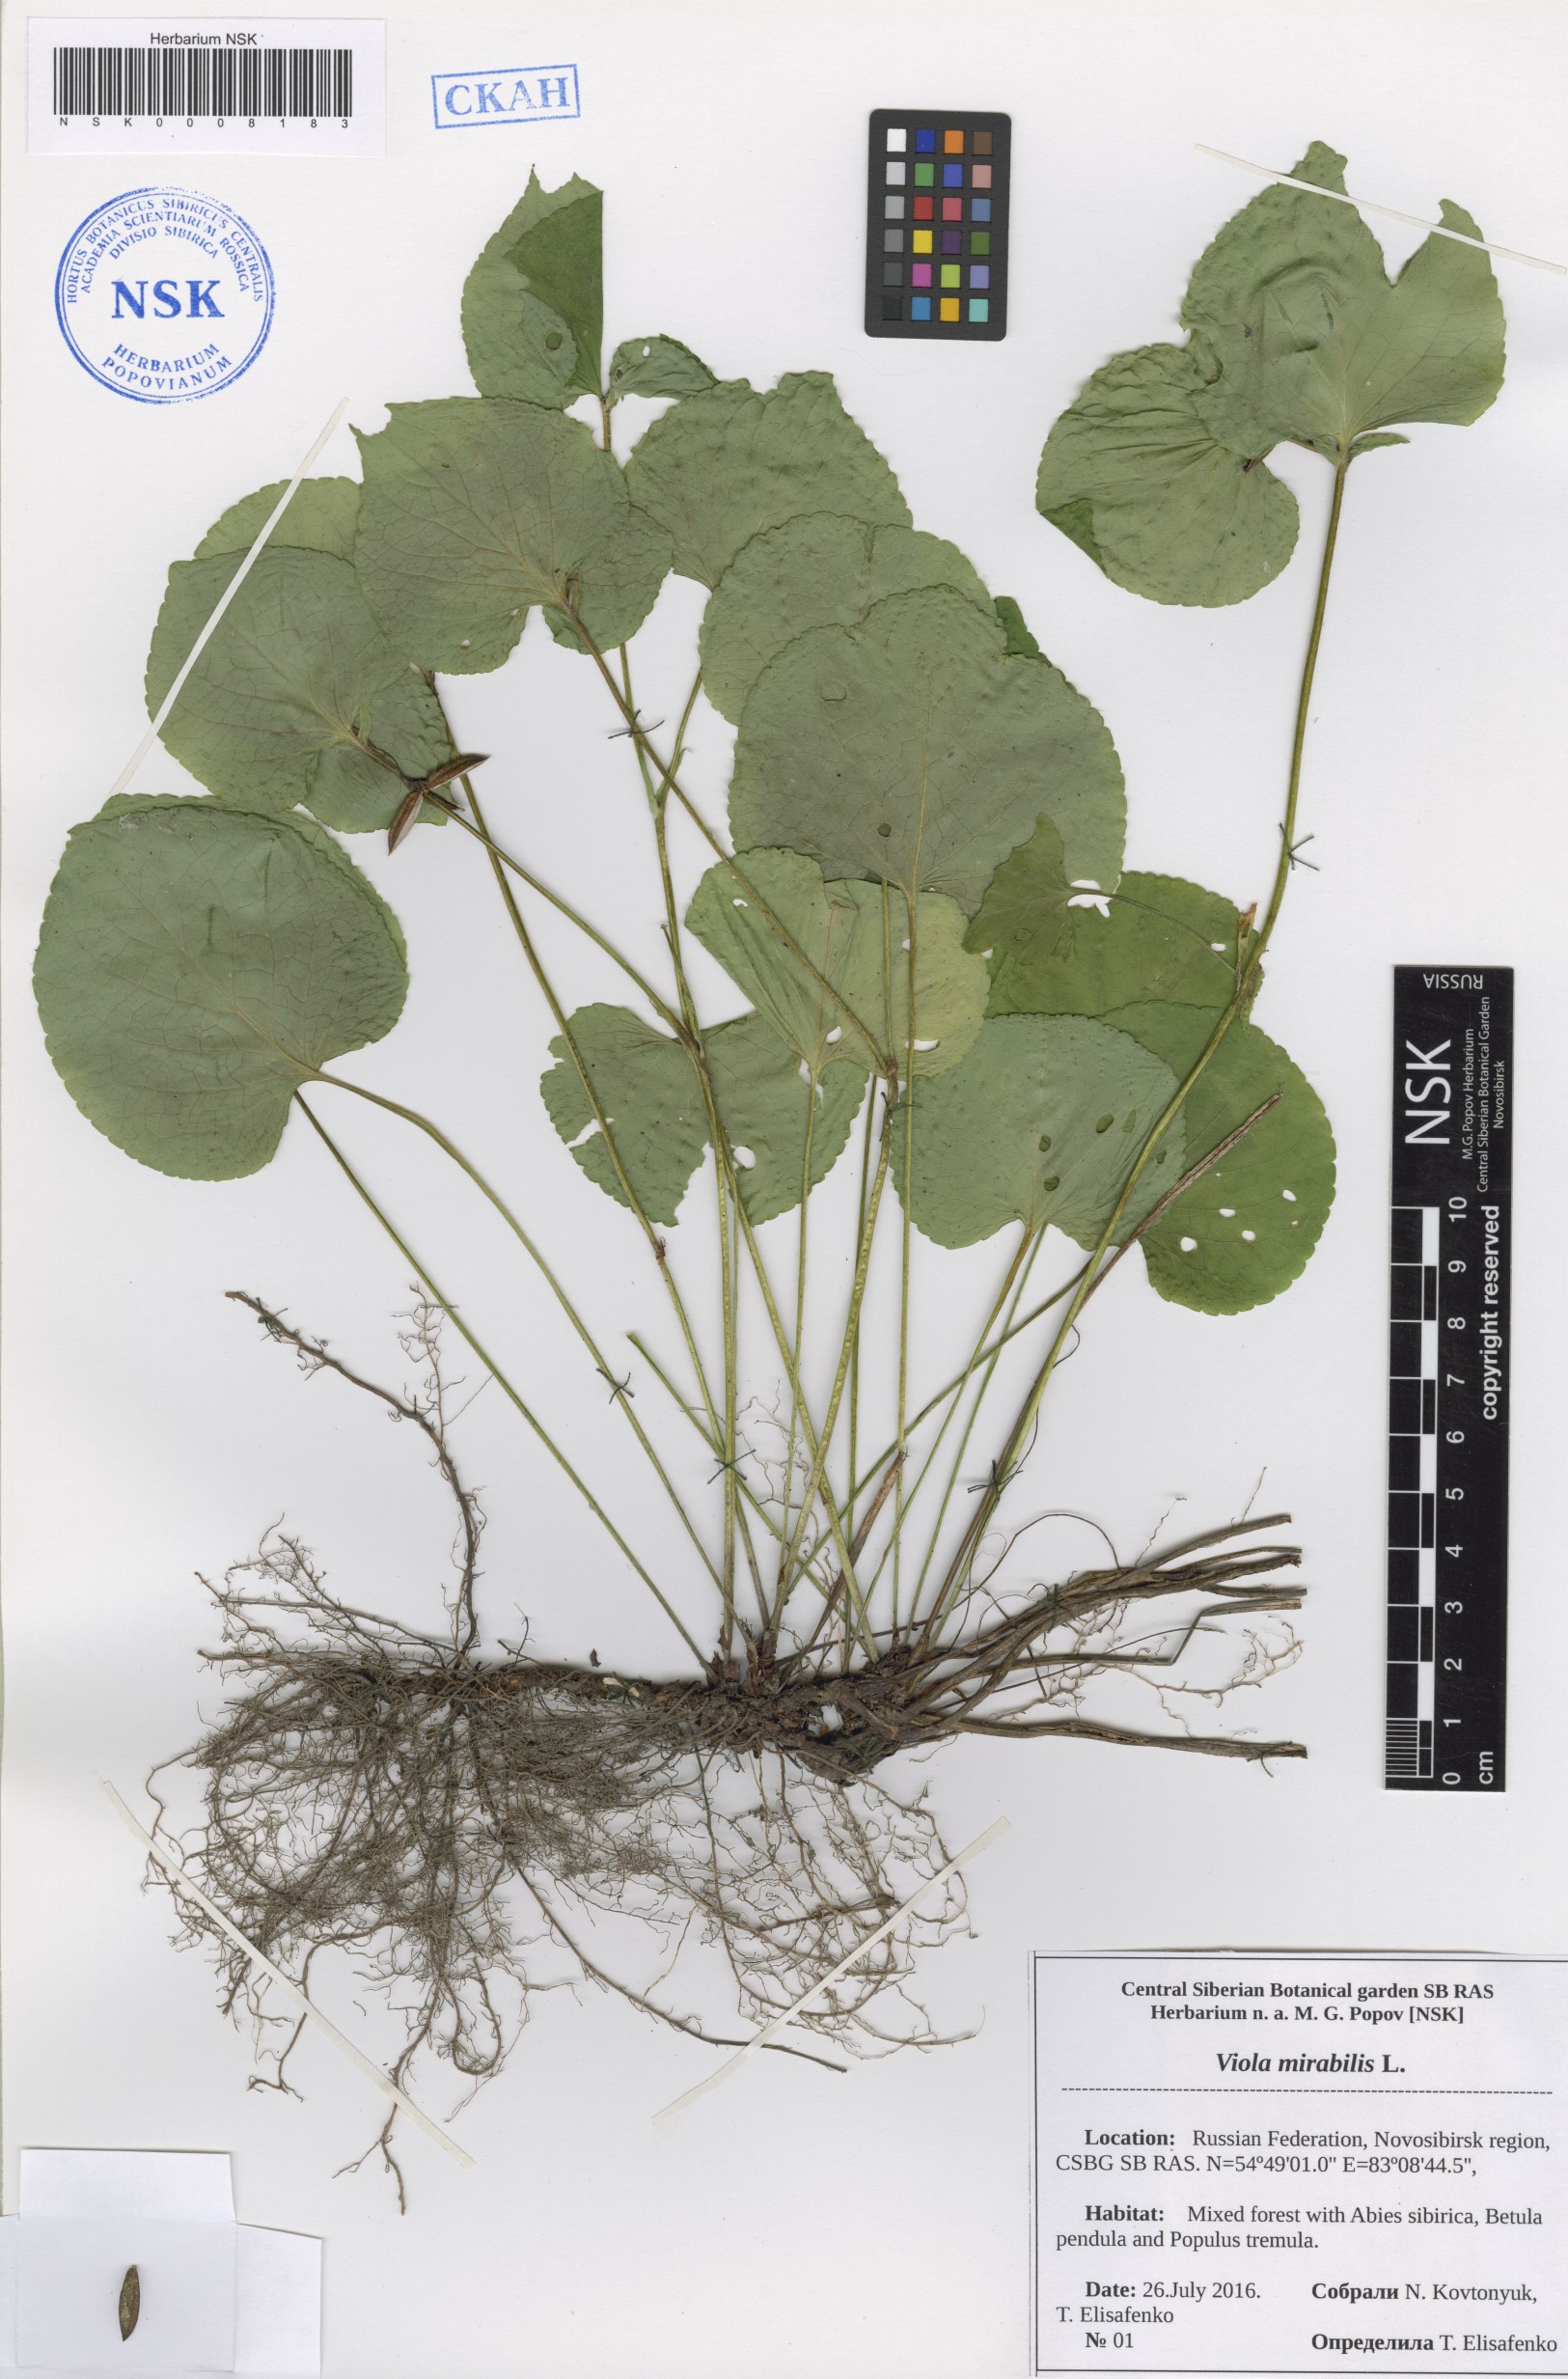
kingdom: Plantae
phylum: Tracheophyta
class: Magnoliopsida
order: Malpighiales
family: Violaceae
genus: Viola
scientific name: Viola mirabilis
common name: Wonder violet
